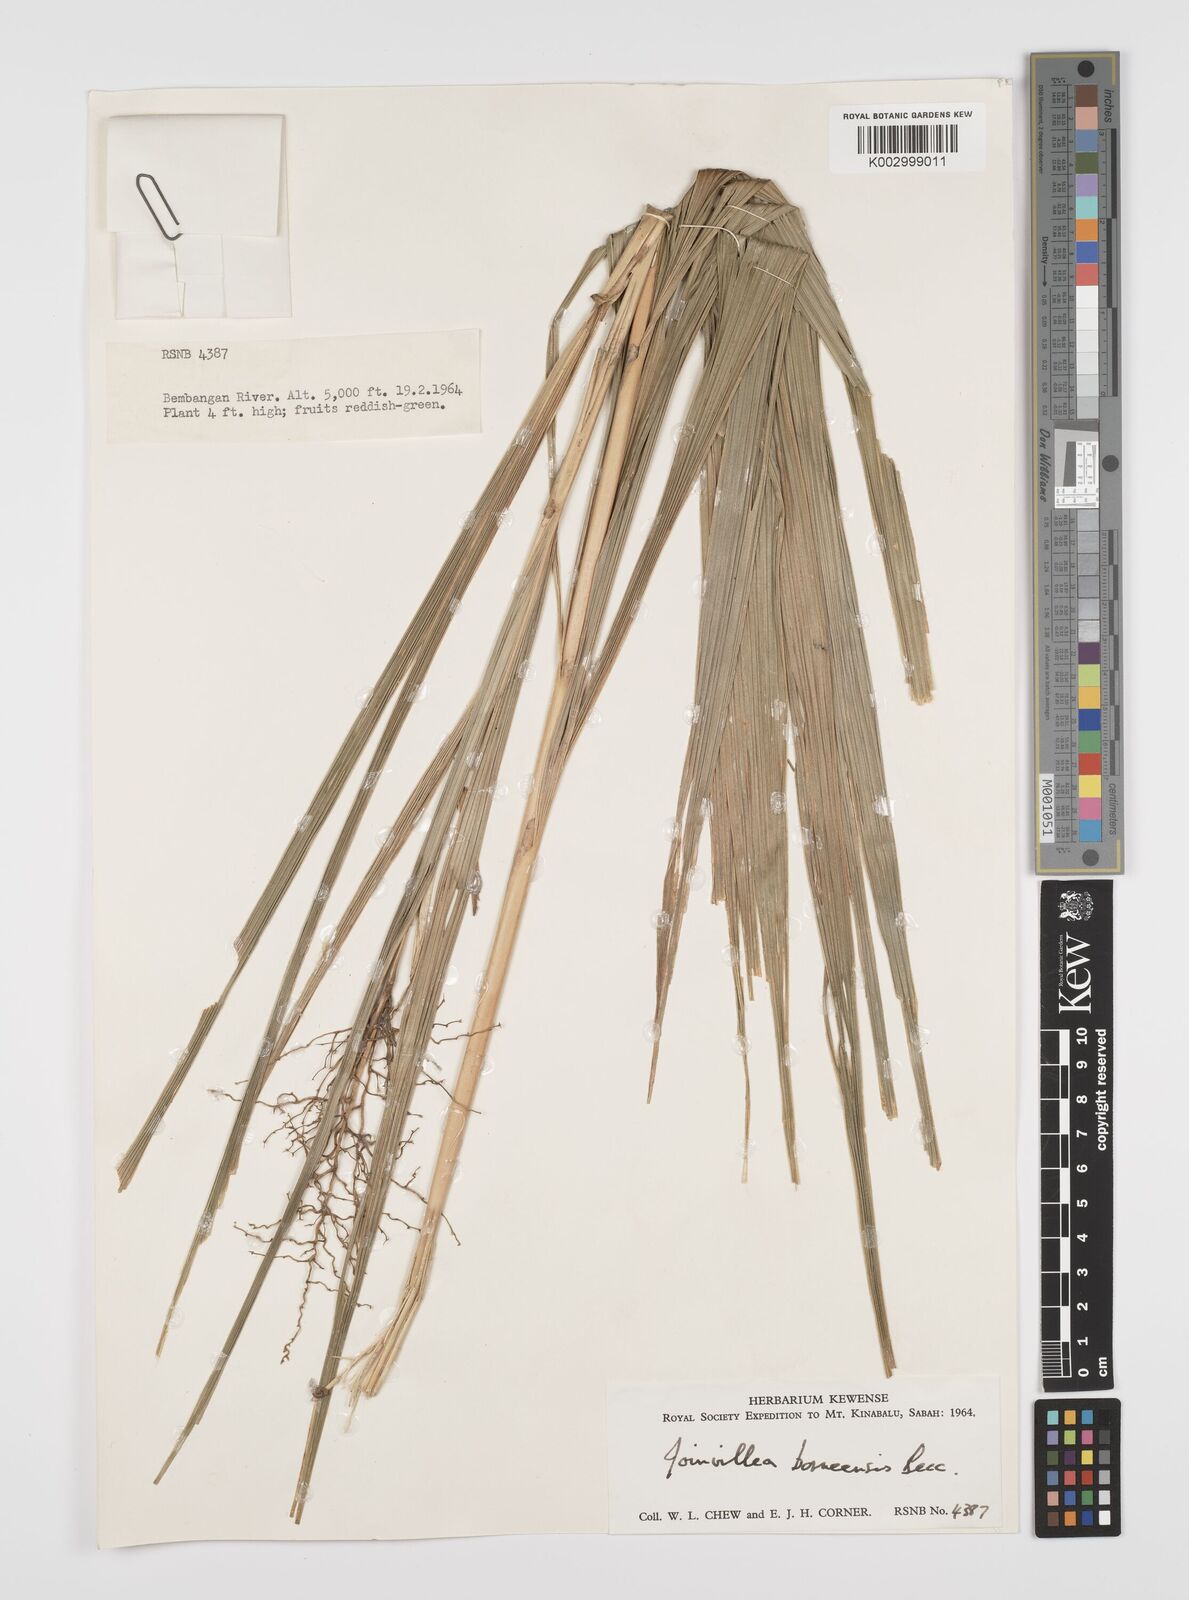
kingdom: Plantae
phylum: Tracheophyta
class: Liliopsida
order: Poales
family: Joinvilleaceae
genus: Joinvillea
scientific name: Joinvillea borneensis
